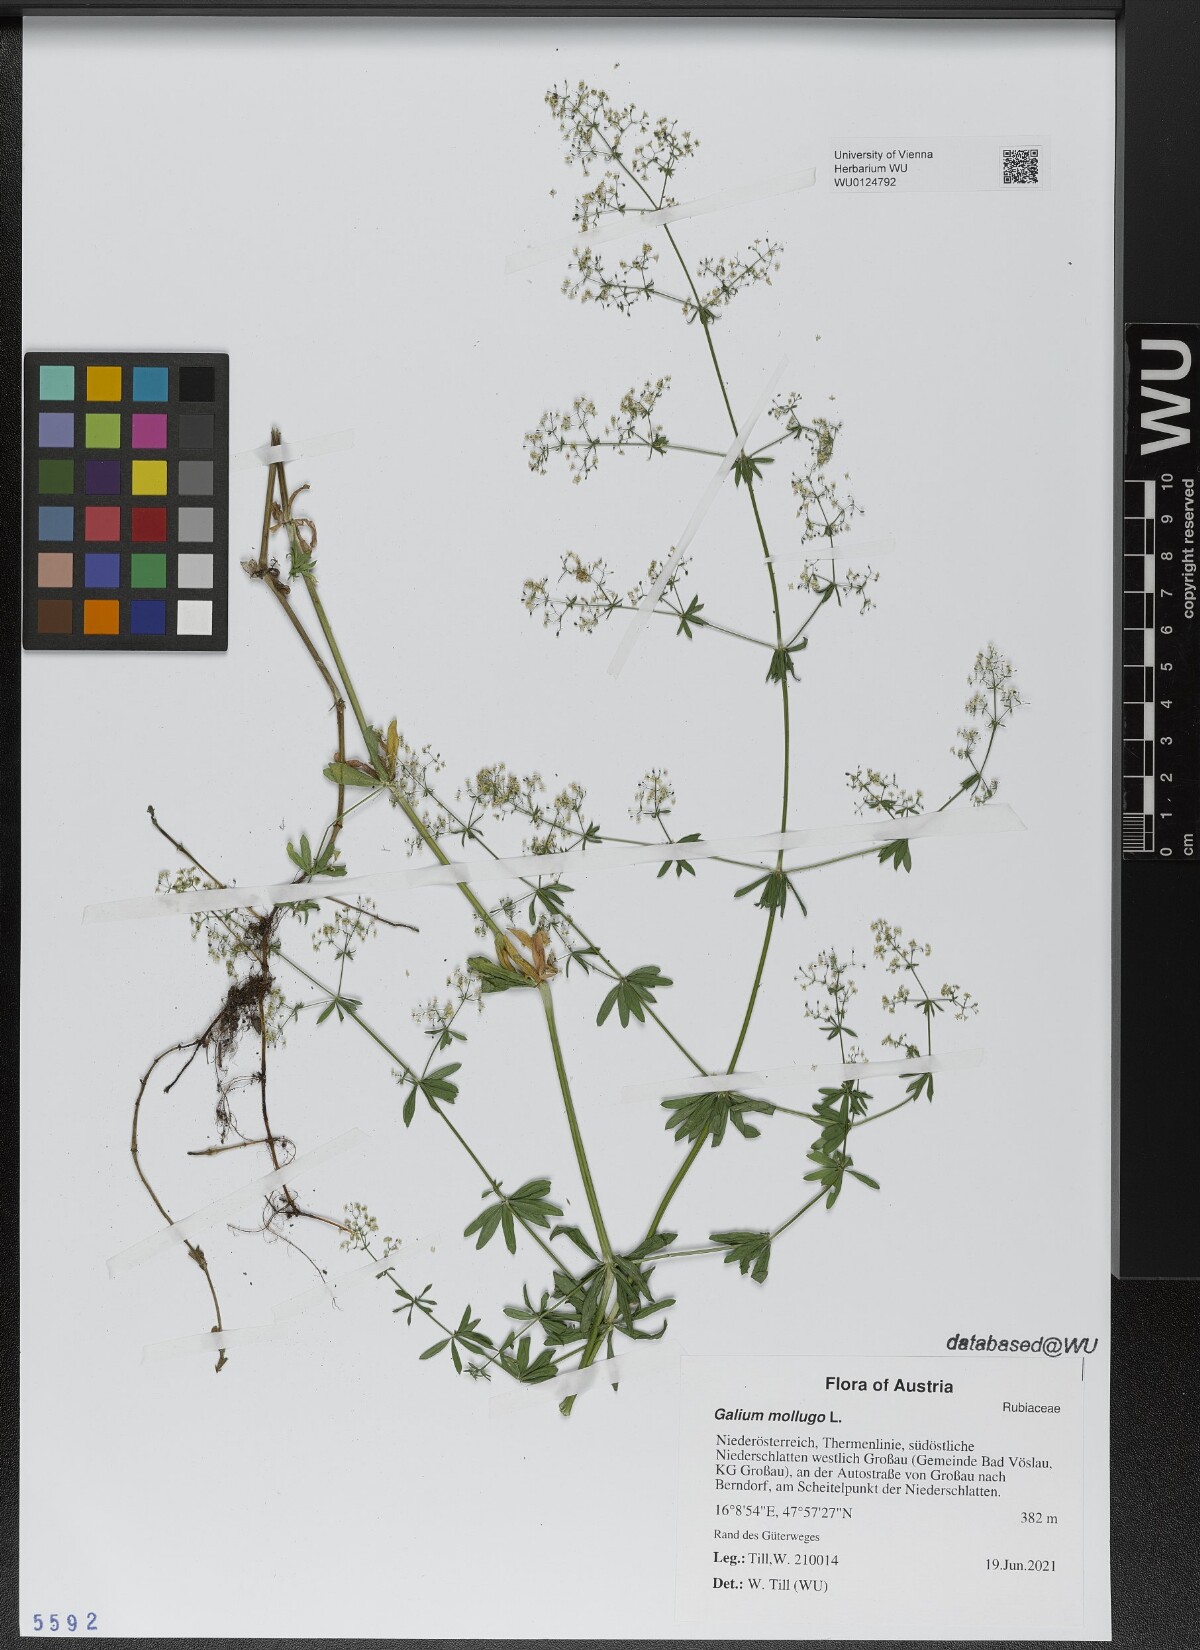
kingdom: Plantae
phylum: Tracheophyta
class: Magnoliopsida
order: Gentianales
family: Rubiaceae
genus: Galium
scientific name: Galium mollugo
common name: Hedge bedstraw
